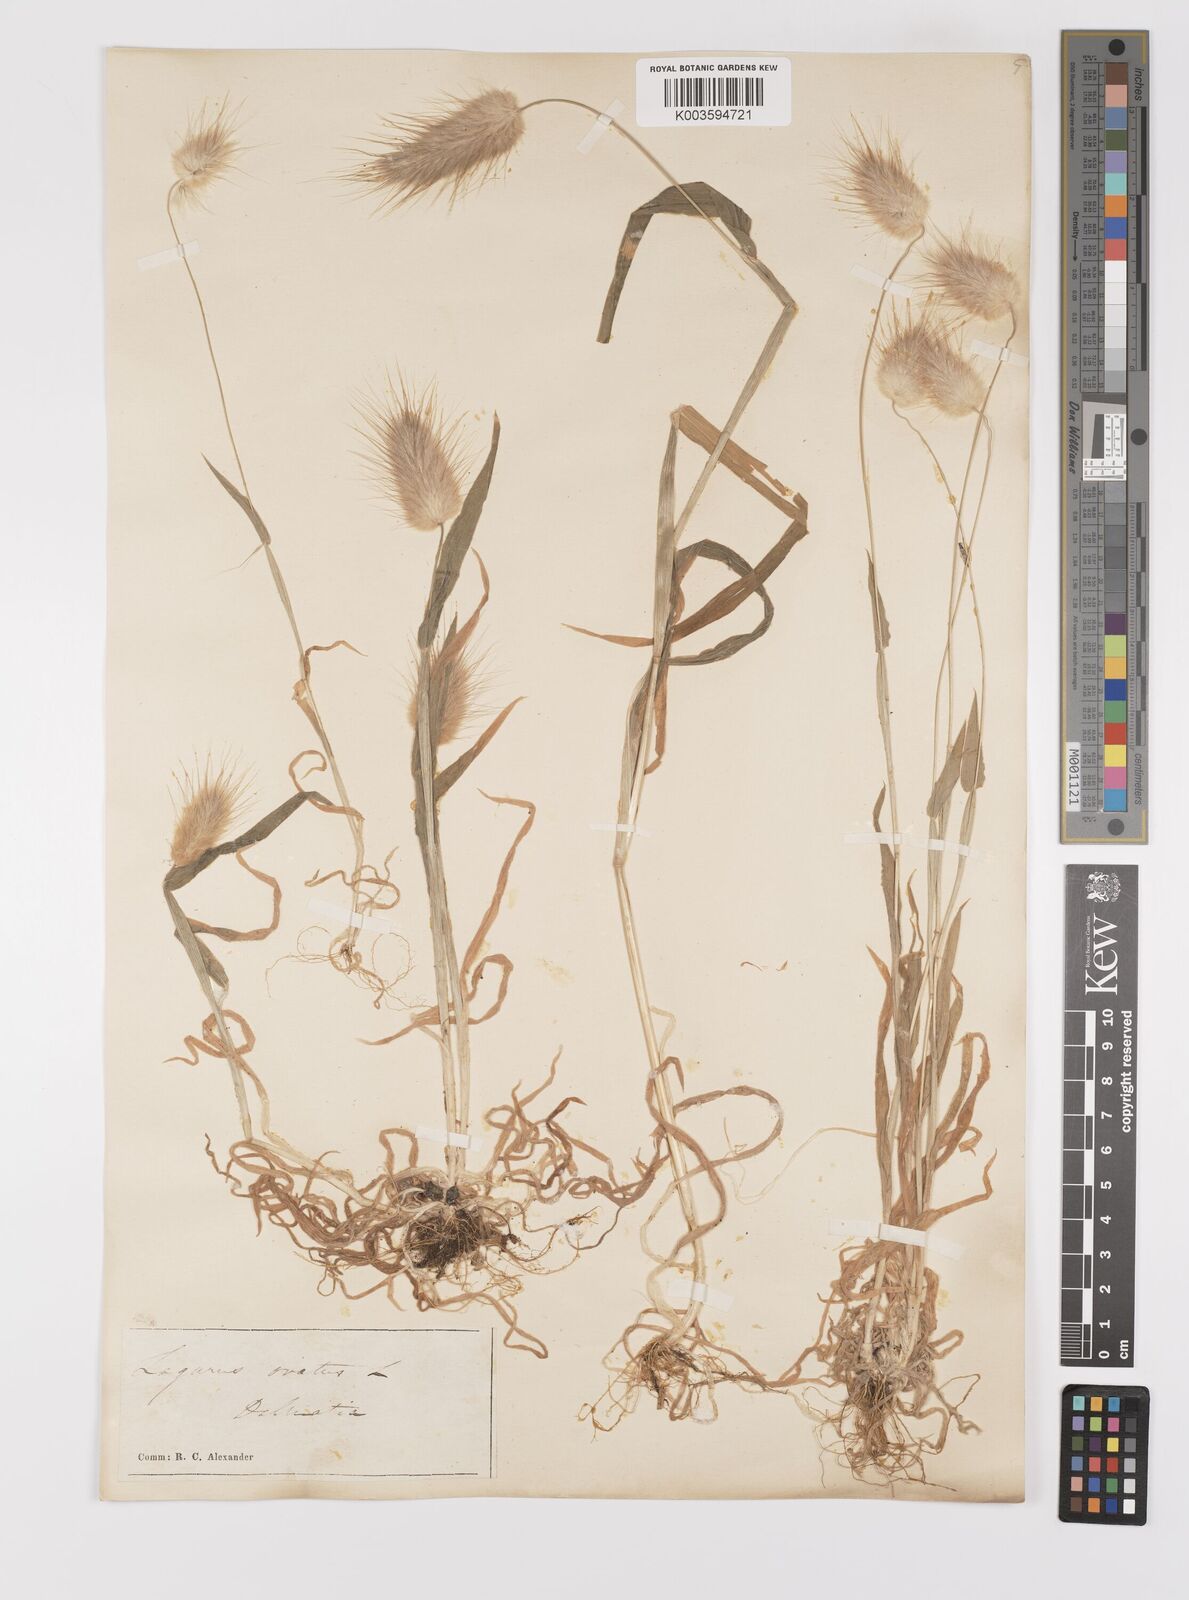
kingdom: Plantae
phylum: Tracheophyta
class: Liliopsida
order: Poales
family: Poaceae
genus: Lagurus
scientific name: Lagurus ovatus
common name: Hare's-tail
